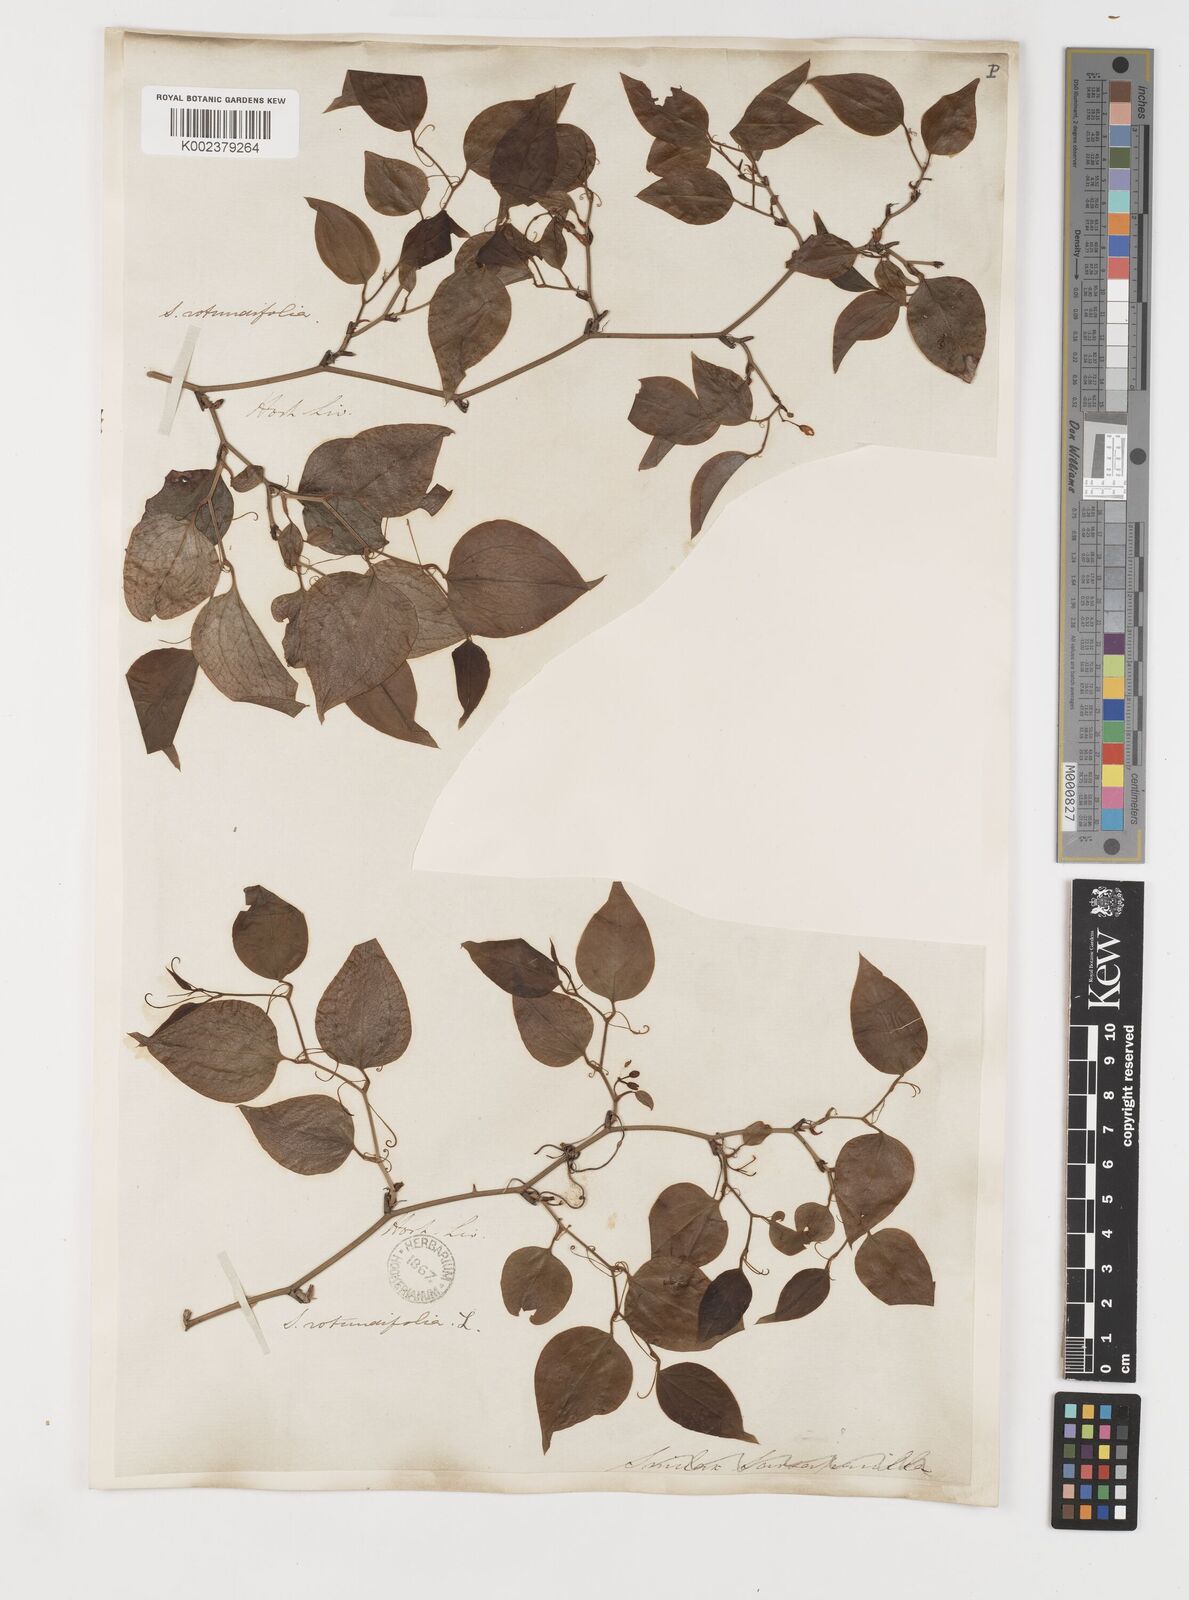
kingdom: Plantae
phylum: Tracheophyta
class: Liliopsida
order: Liliales
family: Smilacaceae
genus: Smilax
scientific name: Smilax rotundifolia
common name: Bullbriar
